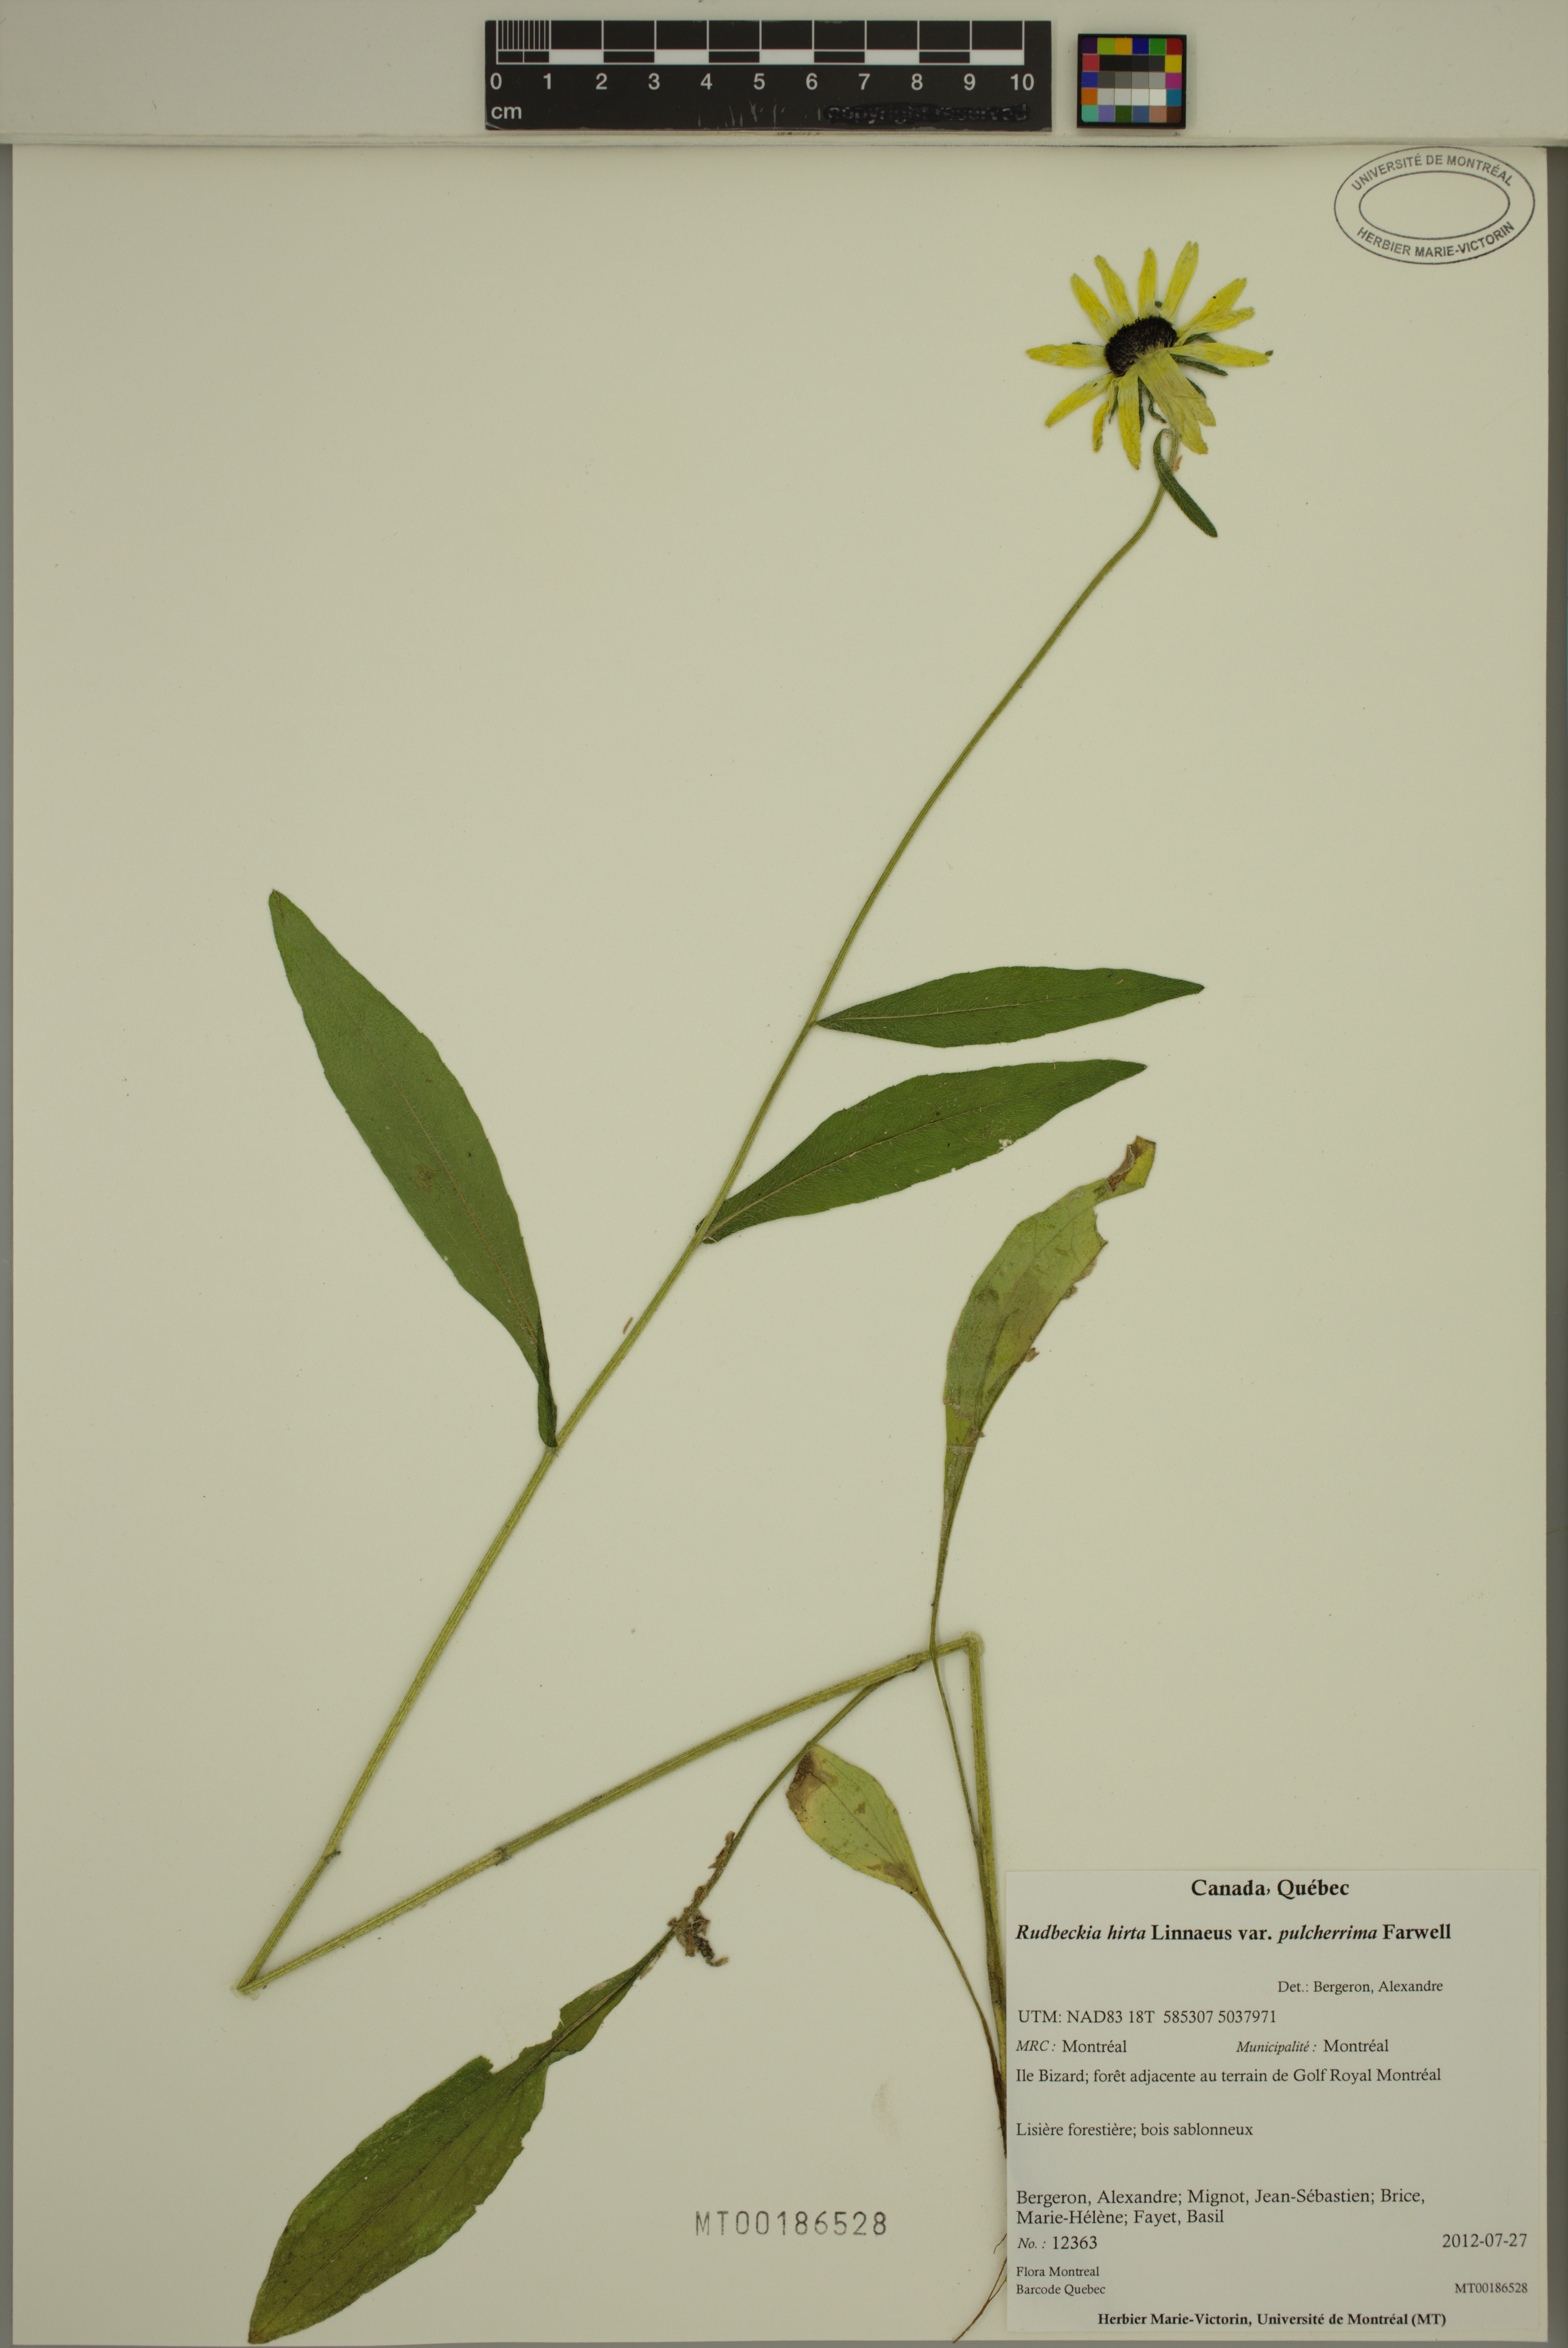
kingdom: Plantae
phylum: Tracheophyta
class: Magnoliopsida
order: Asterales
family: Asteraceae
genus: Rudbeckia
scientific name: Rudbeckia hirta
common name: Black-eyed-susan
